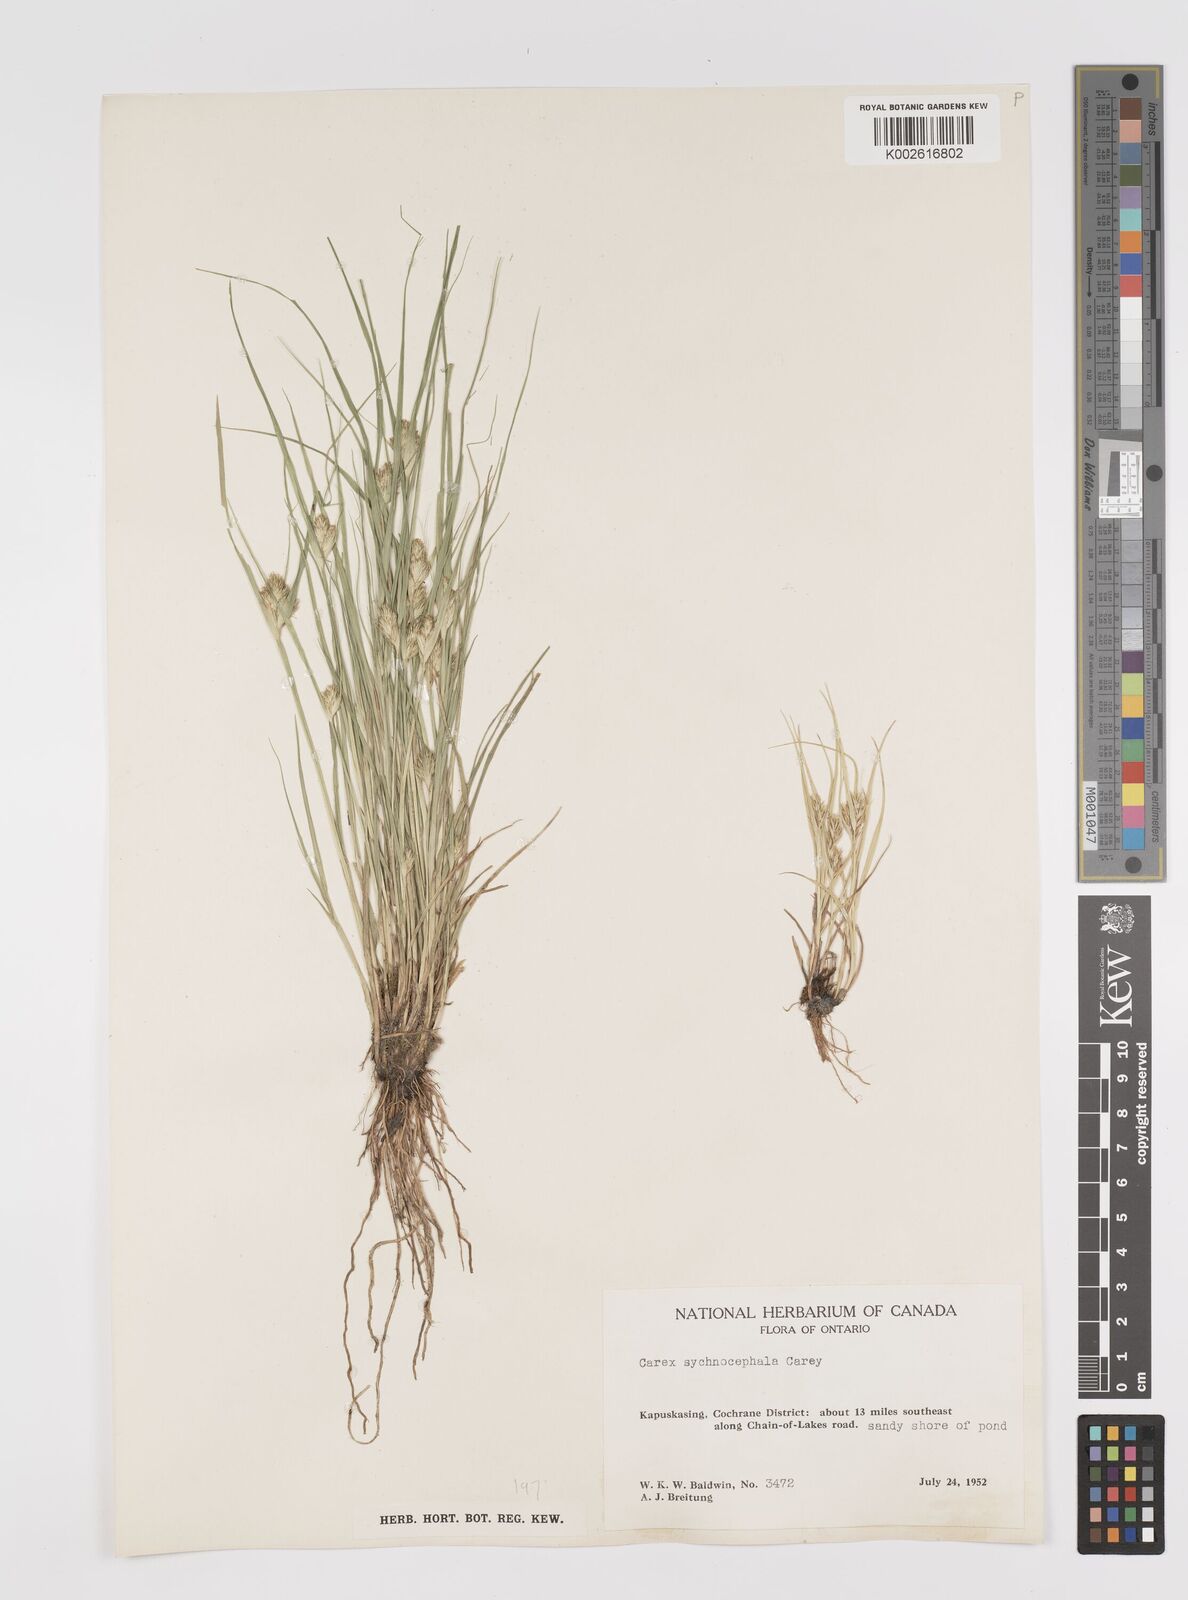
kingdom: Plantae
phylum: Tracheophyta
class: Liliopsida
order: Poales
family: Cyperaceae
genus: Carex
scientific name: Carex sychnocephala
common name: Dense long-beaked sedge
